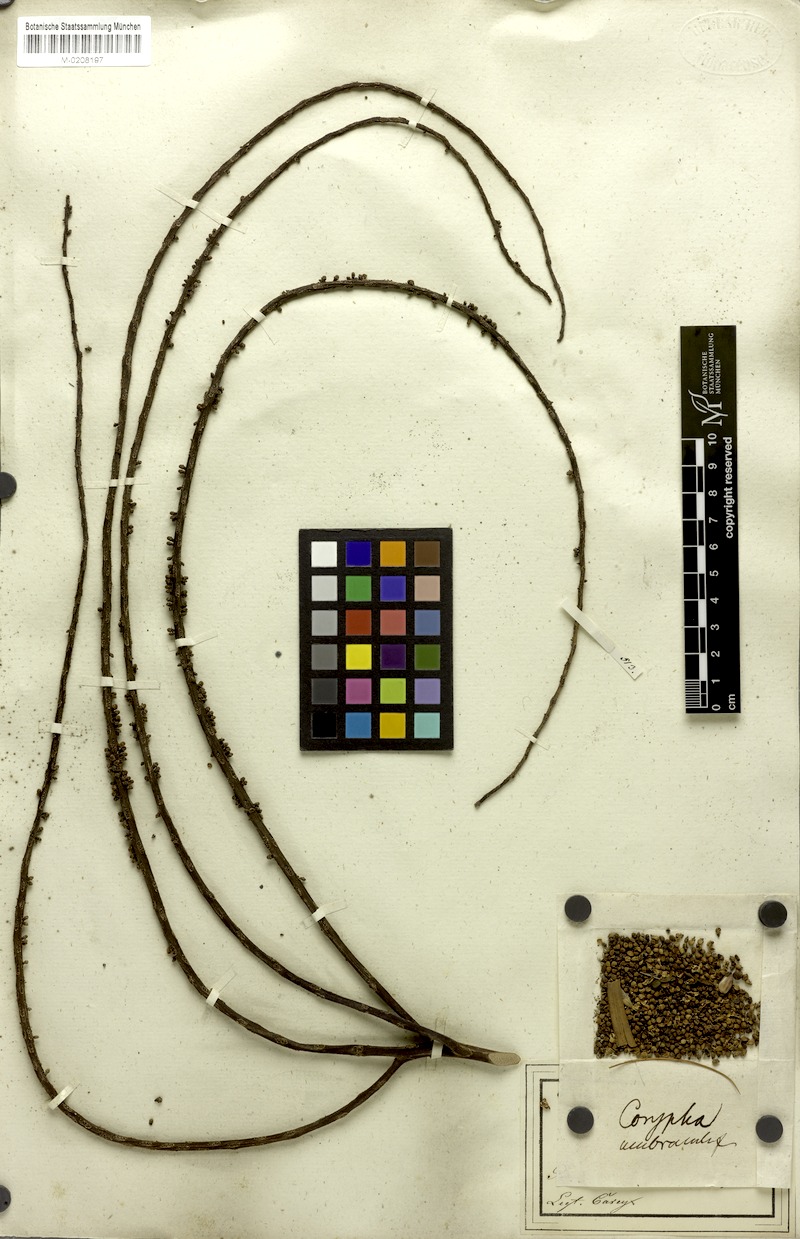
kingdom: Plantae
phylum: Tracheophyta
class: Liliopsida
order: Arecales
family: Arecaceae
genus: Corypha
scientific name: Corypha umbraculifera
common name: Talipot palm
